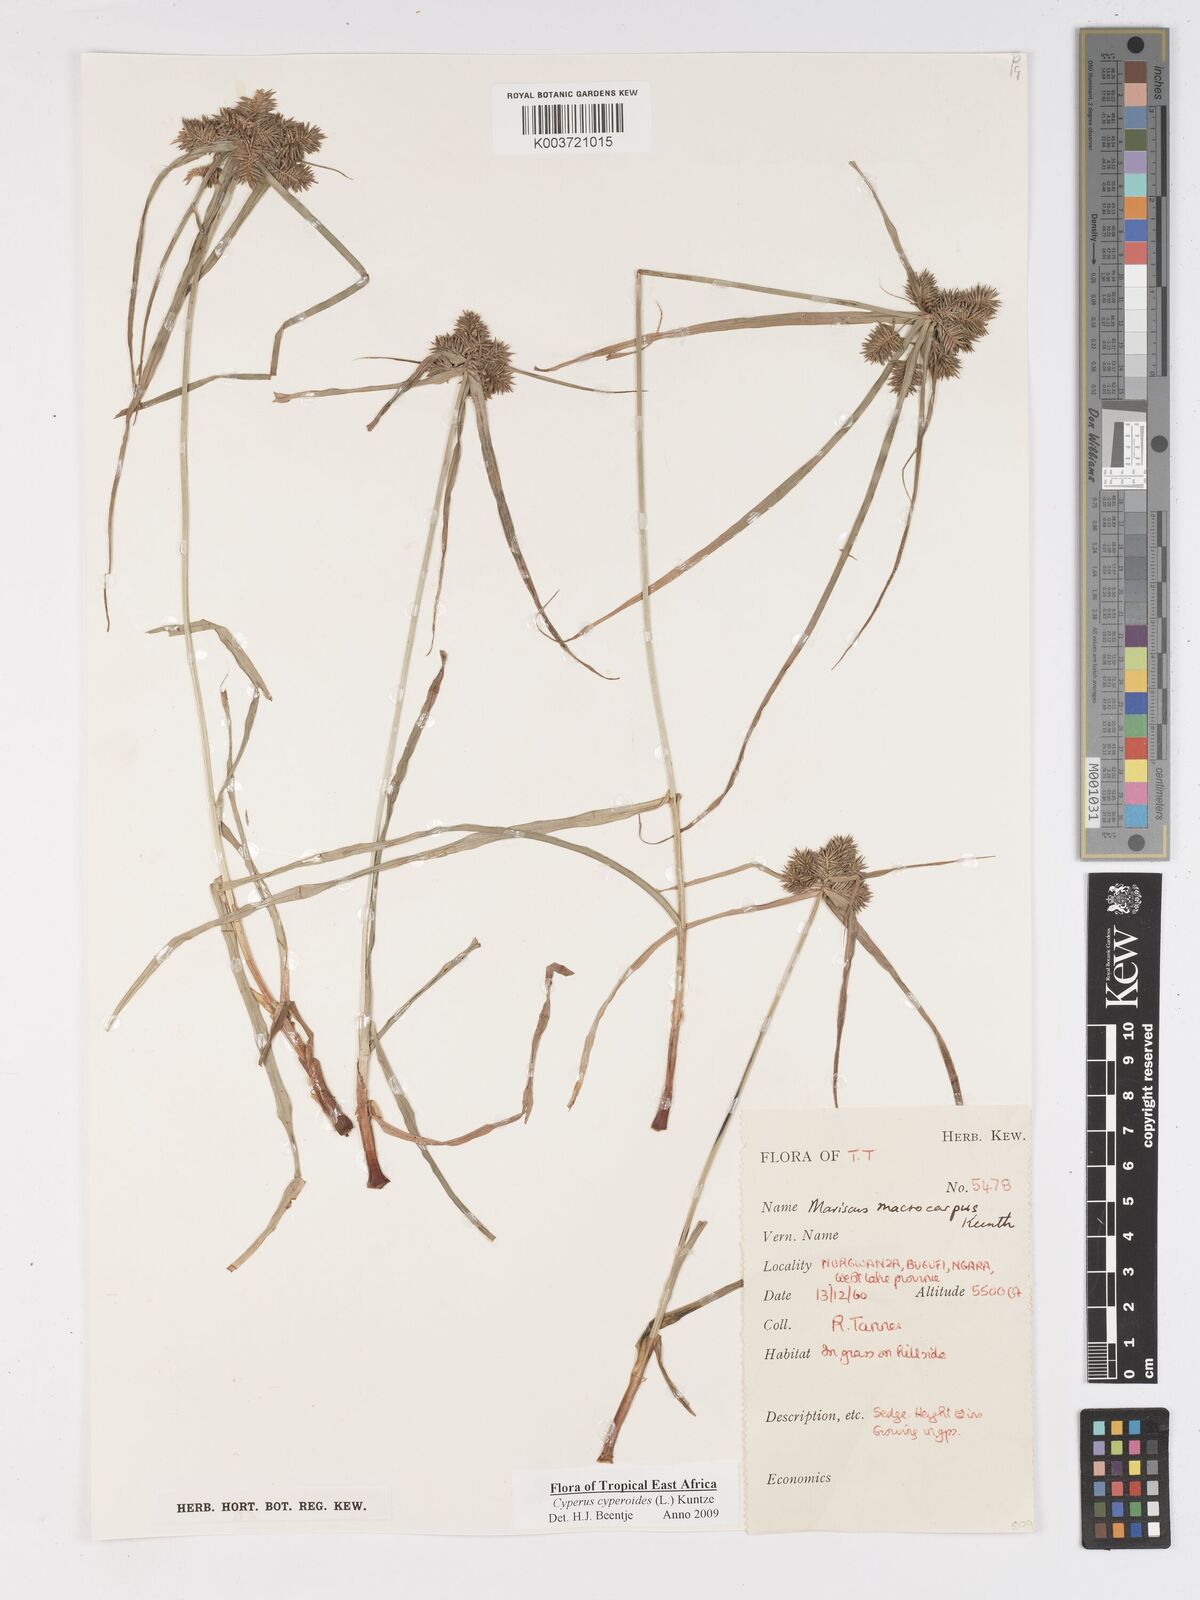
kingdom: Plantae
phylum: Tracheophyta
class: Liliopsida
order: Poales
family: Cyperaceae
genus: Cyperus
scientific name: Cyperus cyperoides
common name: Pacific island flat sedge
